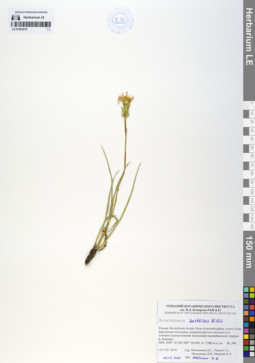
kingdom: Plantae
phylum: Tracheophyta
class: Magnoliopsida
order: Asterales
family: Asteraceae
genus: Takhtajaniantha
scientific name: Takhtajaniantha austriaca
